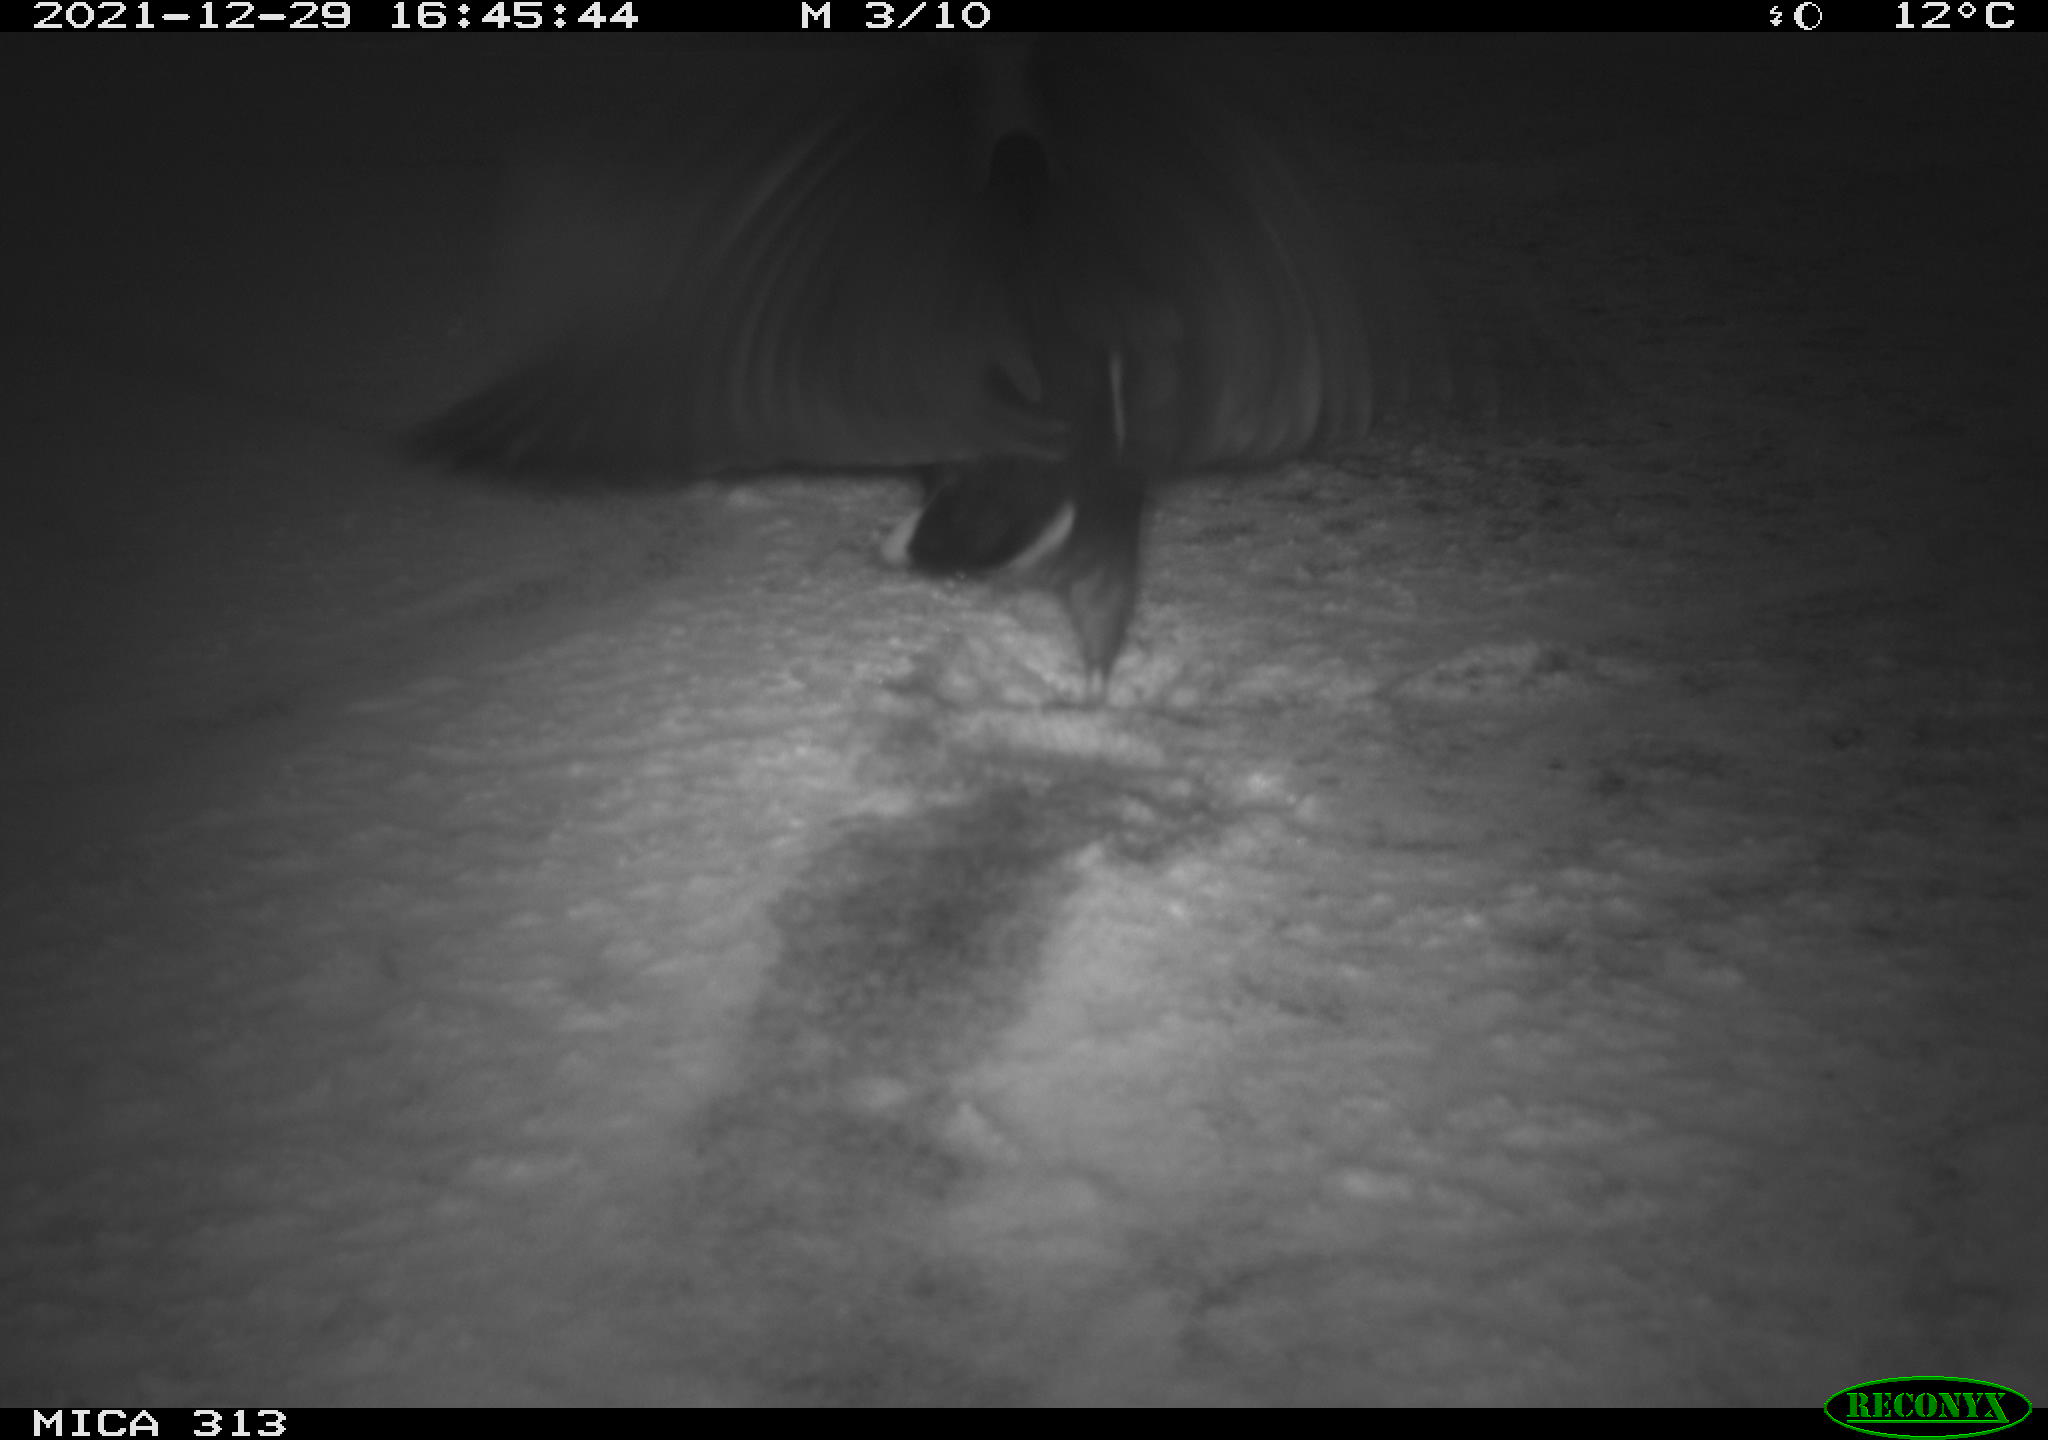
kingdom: Animalia
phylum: Chordata
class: Aves
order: Gruiformes
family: Rallidae
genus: Gallinula
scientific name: Gallinula chloropus
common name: Common moorhen
